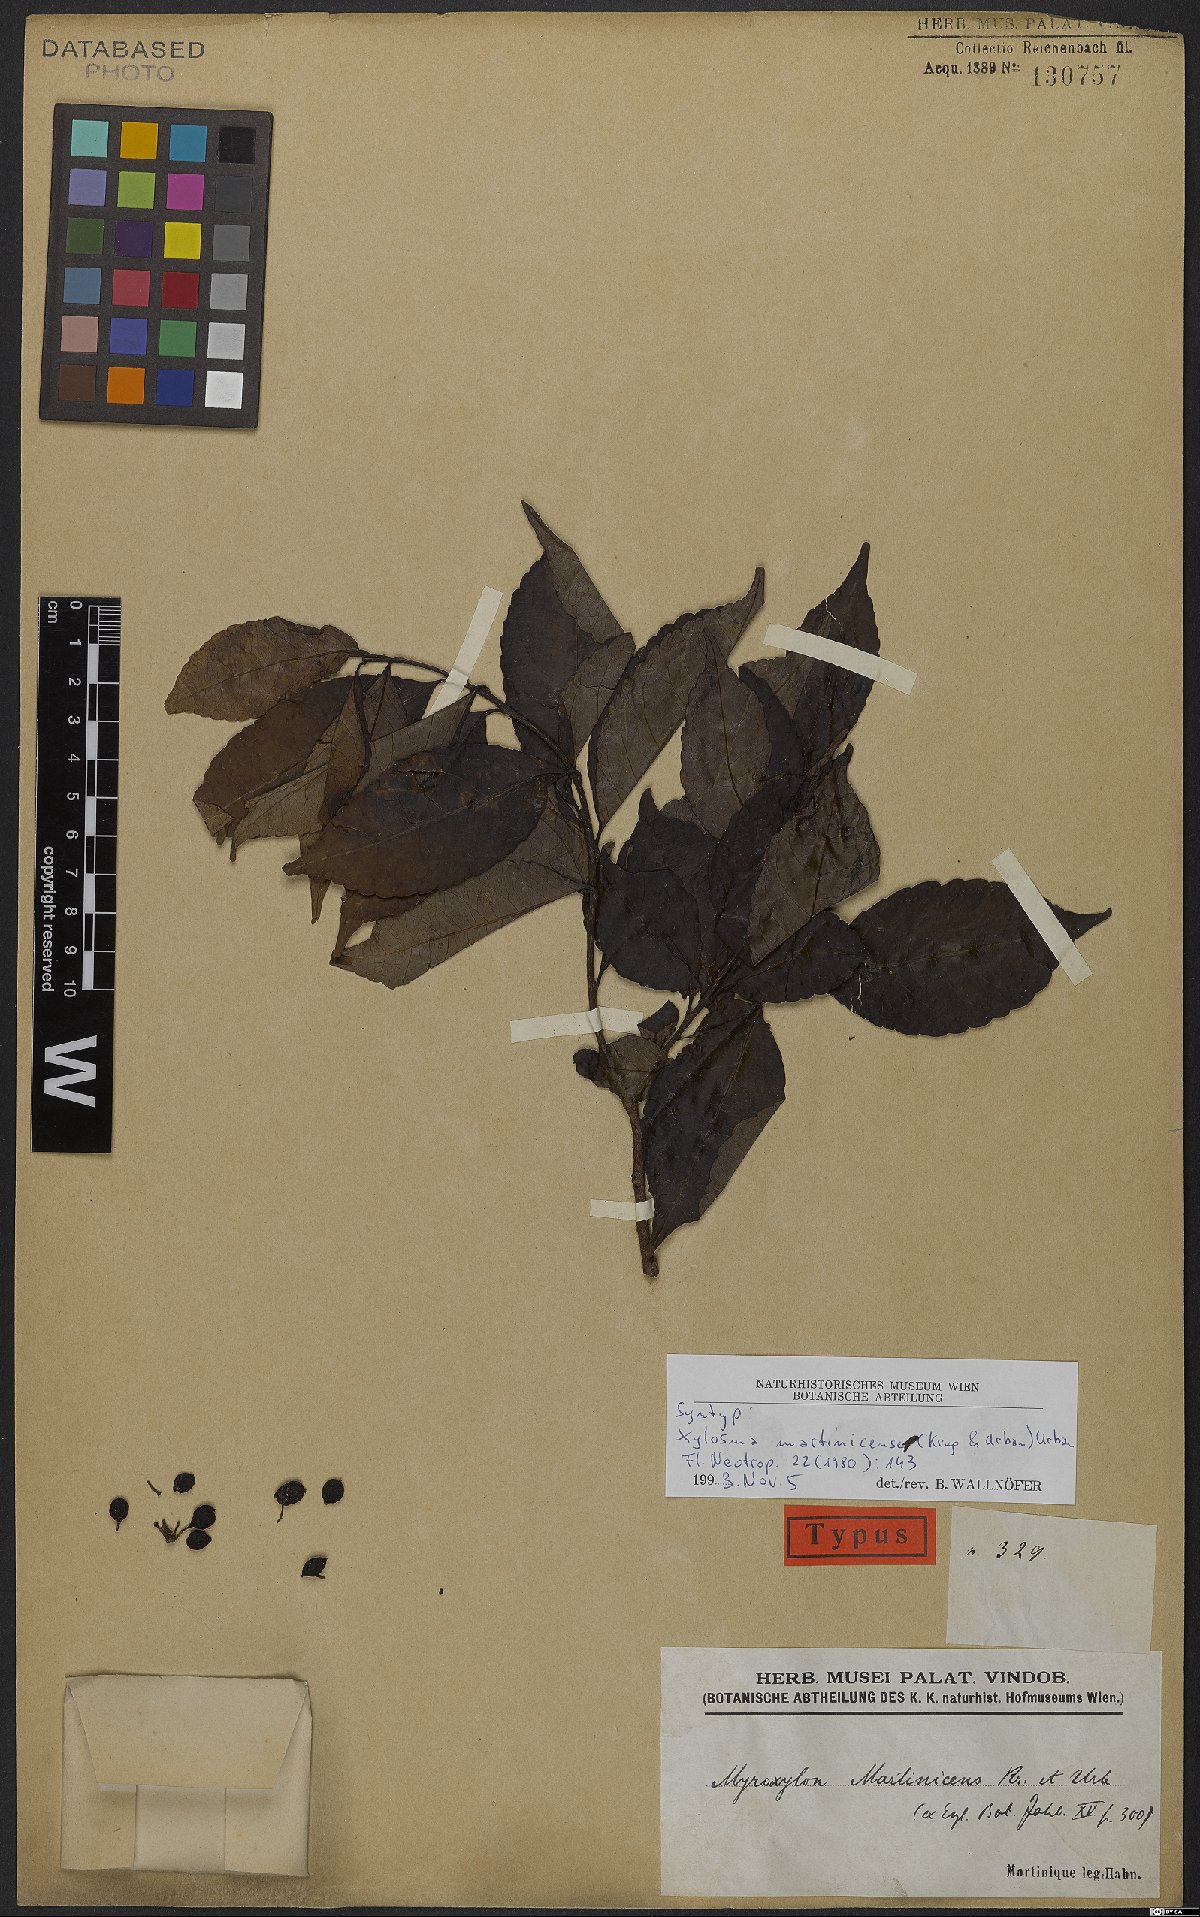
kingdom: Plantae
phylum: Tracheophyta
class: Magnoliopsida
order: Malpighiales
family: Salicaceae
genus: Xylosma
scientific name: Xylosma martinicensis
